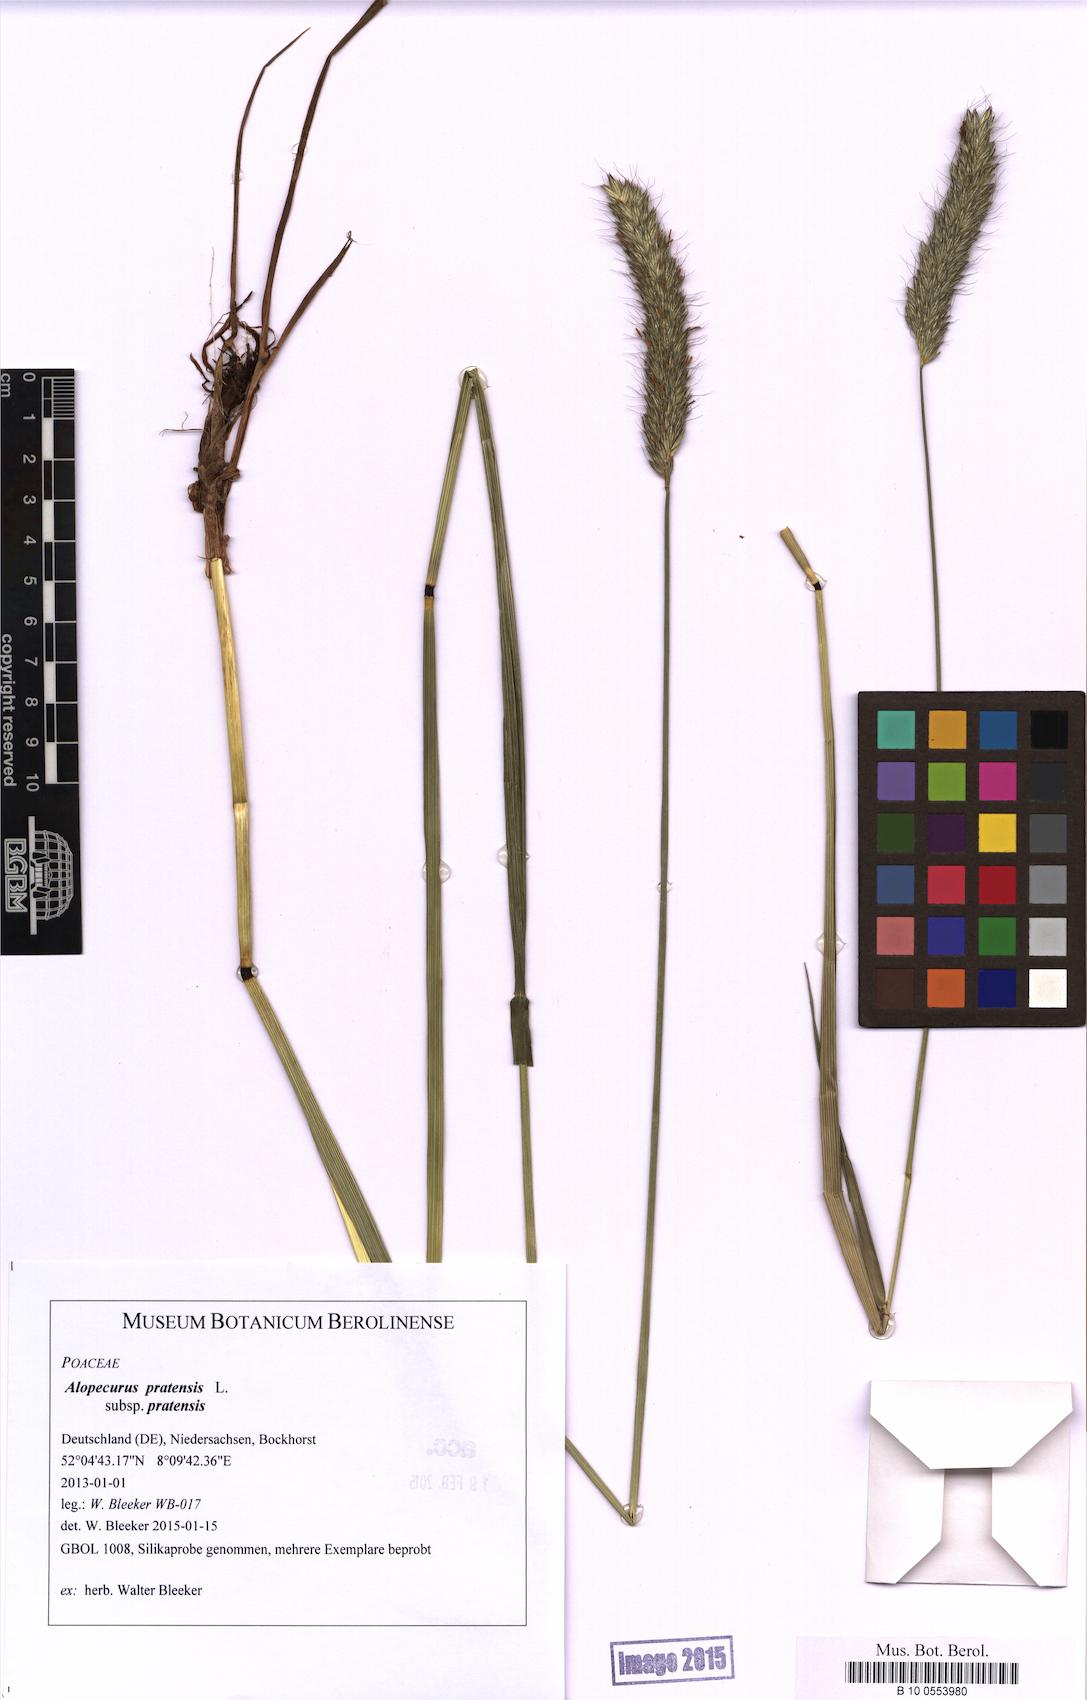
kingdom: Plantae
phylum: Tracheophyta
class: Liliopsida
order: Poales
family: Poaceae
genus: Alopecurus
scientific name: Alopecurus pratensis
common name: Meadow foxtail
